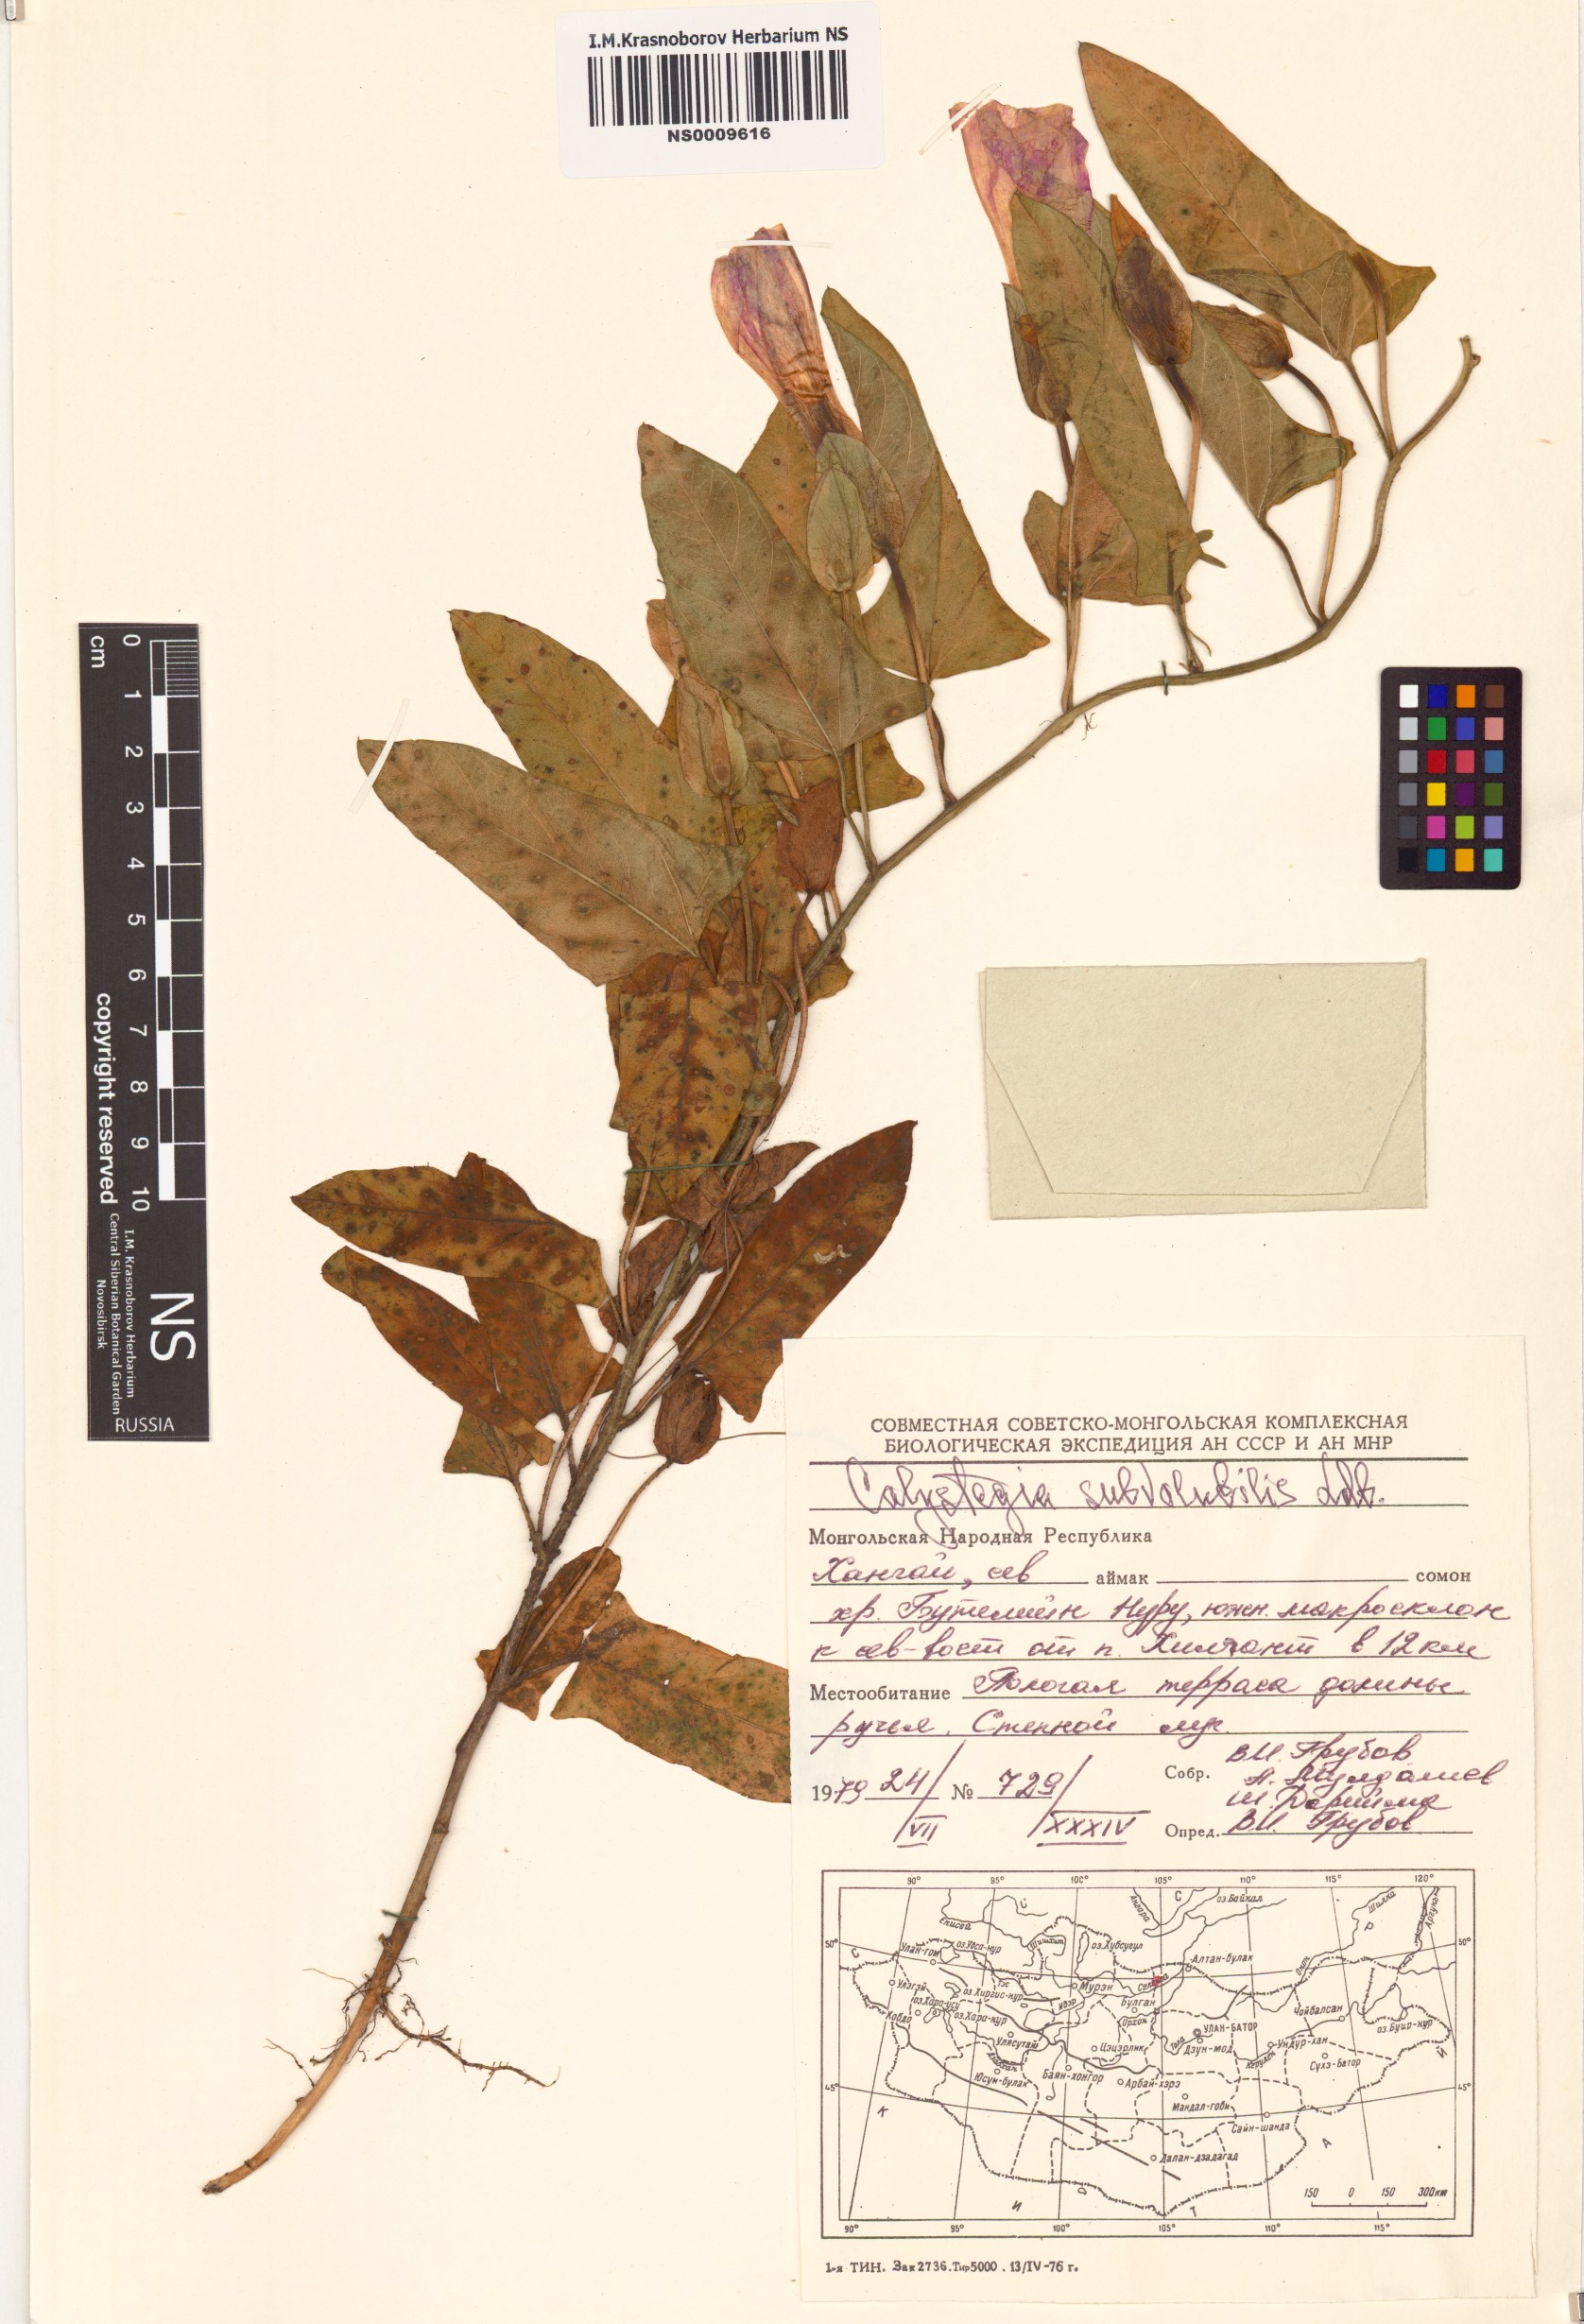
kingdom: Plantae
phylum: Tracheophyta
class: Magnoliopsida
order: Solanales
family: Convolvulaceae
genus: Calystegia
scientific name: Calystegia pellita
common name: Hairy bindweed
